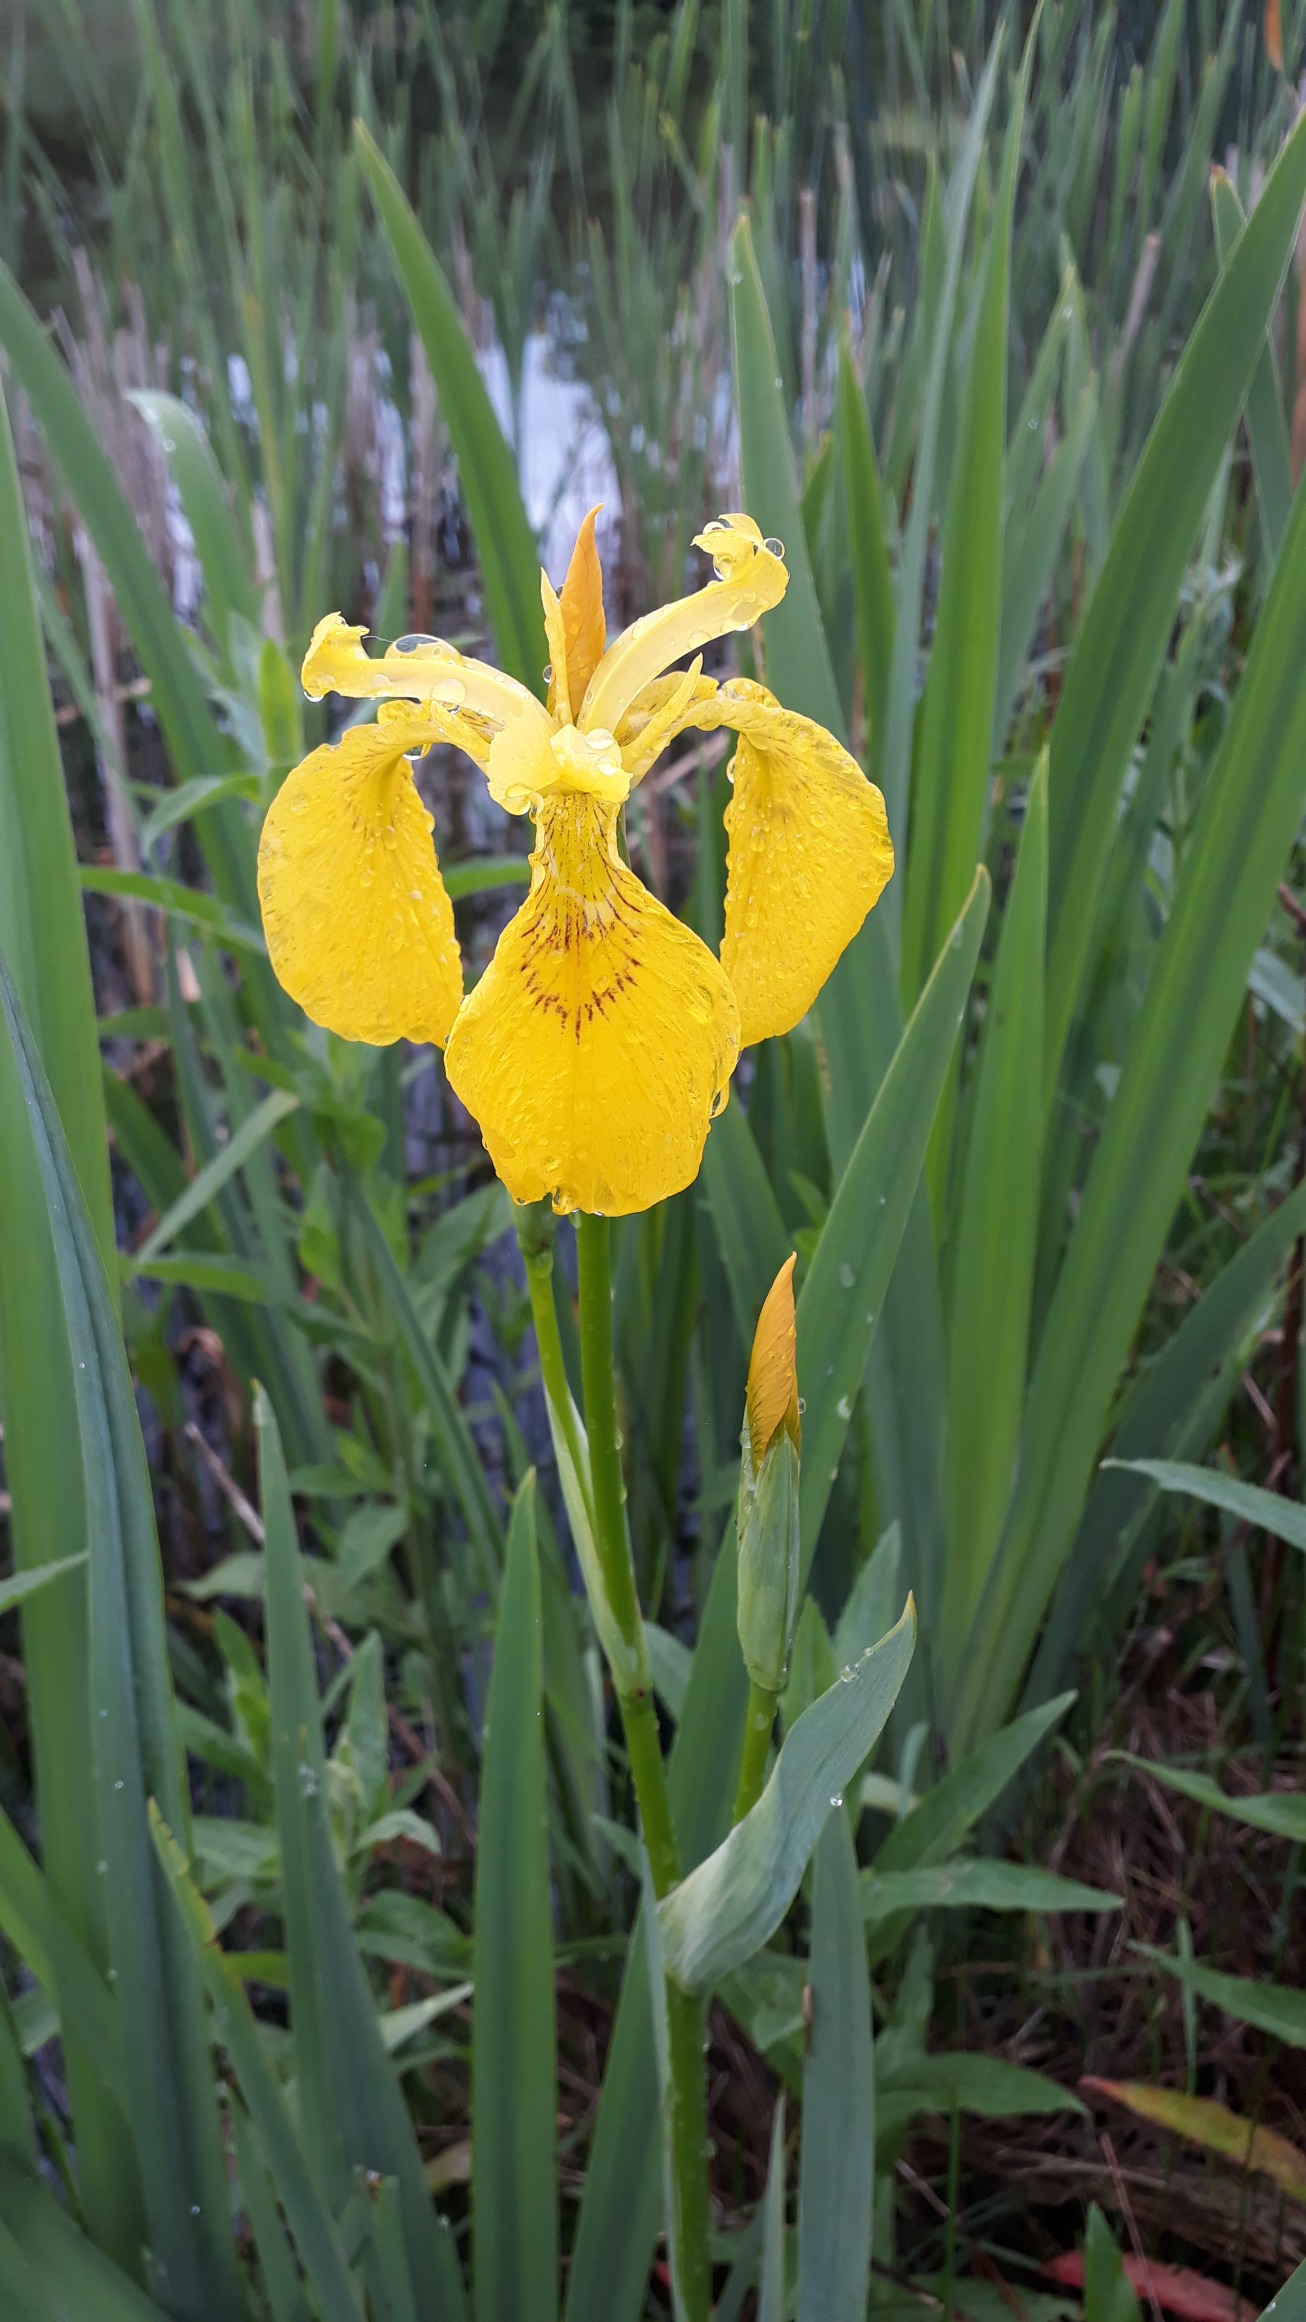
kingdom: Plantae
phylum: Tracheophyta
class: Liliopsida
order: Asparagales
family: Iridaceae
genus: Iris
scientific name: Iris pseudacorus
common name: Gul iris
